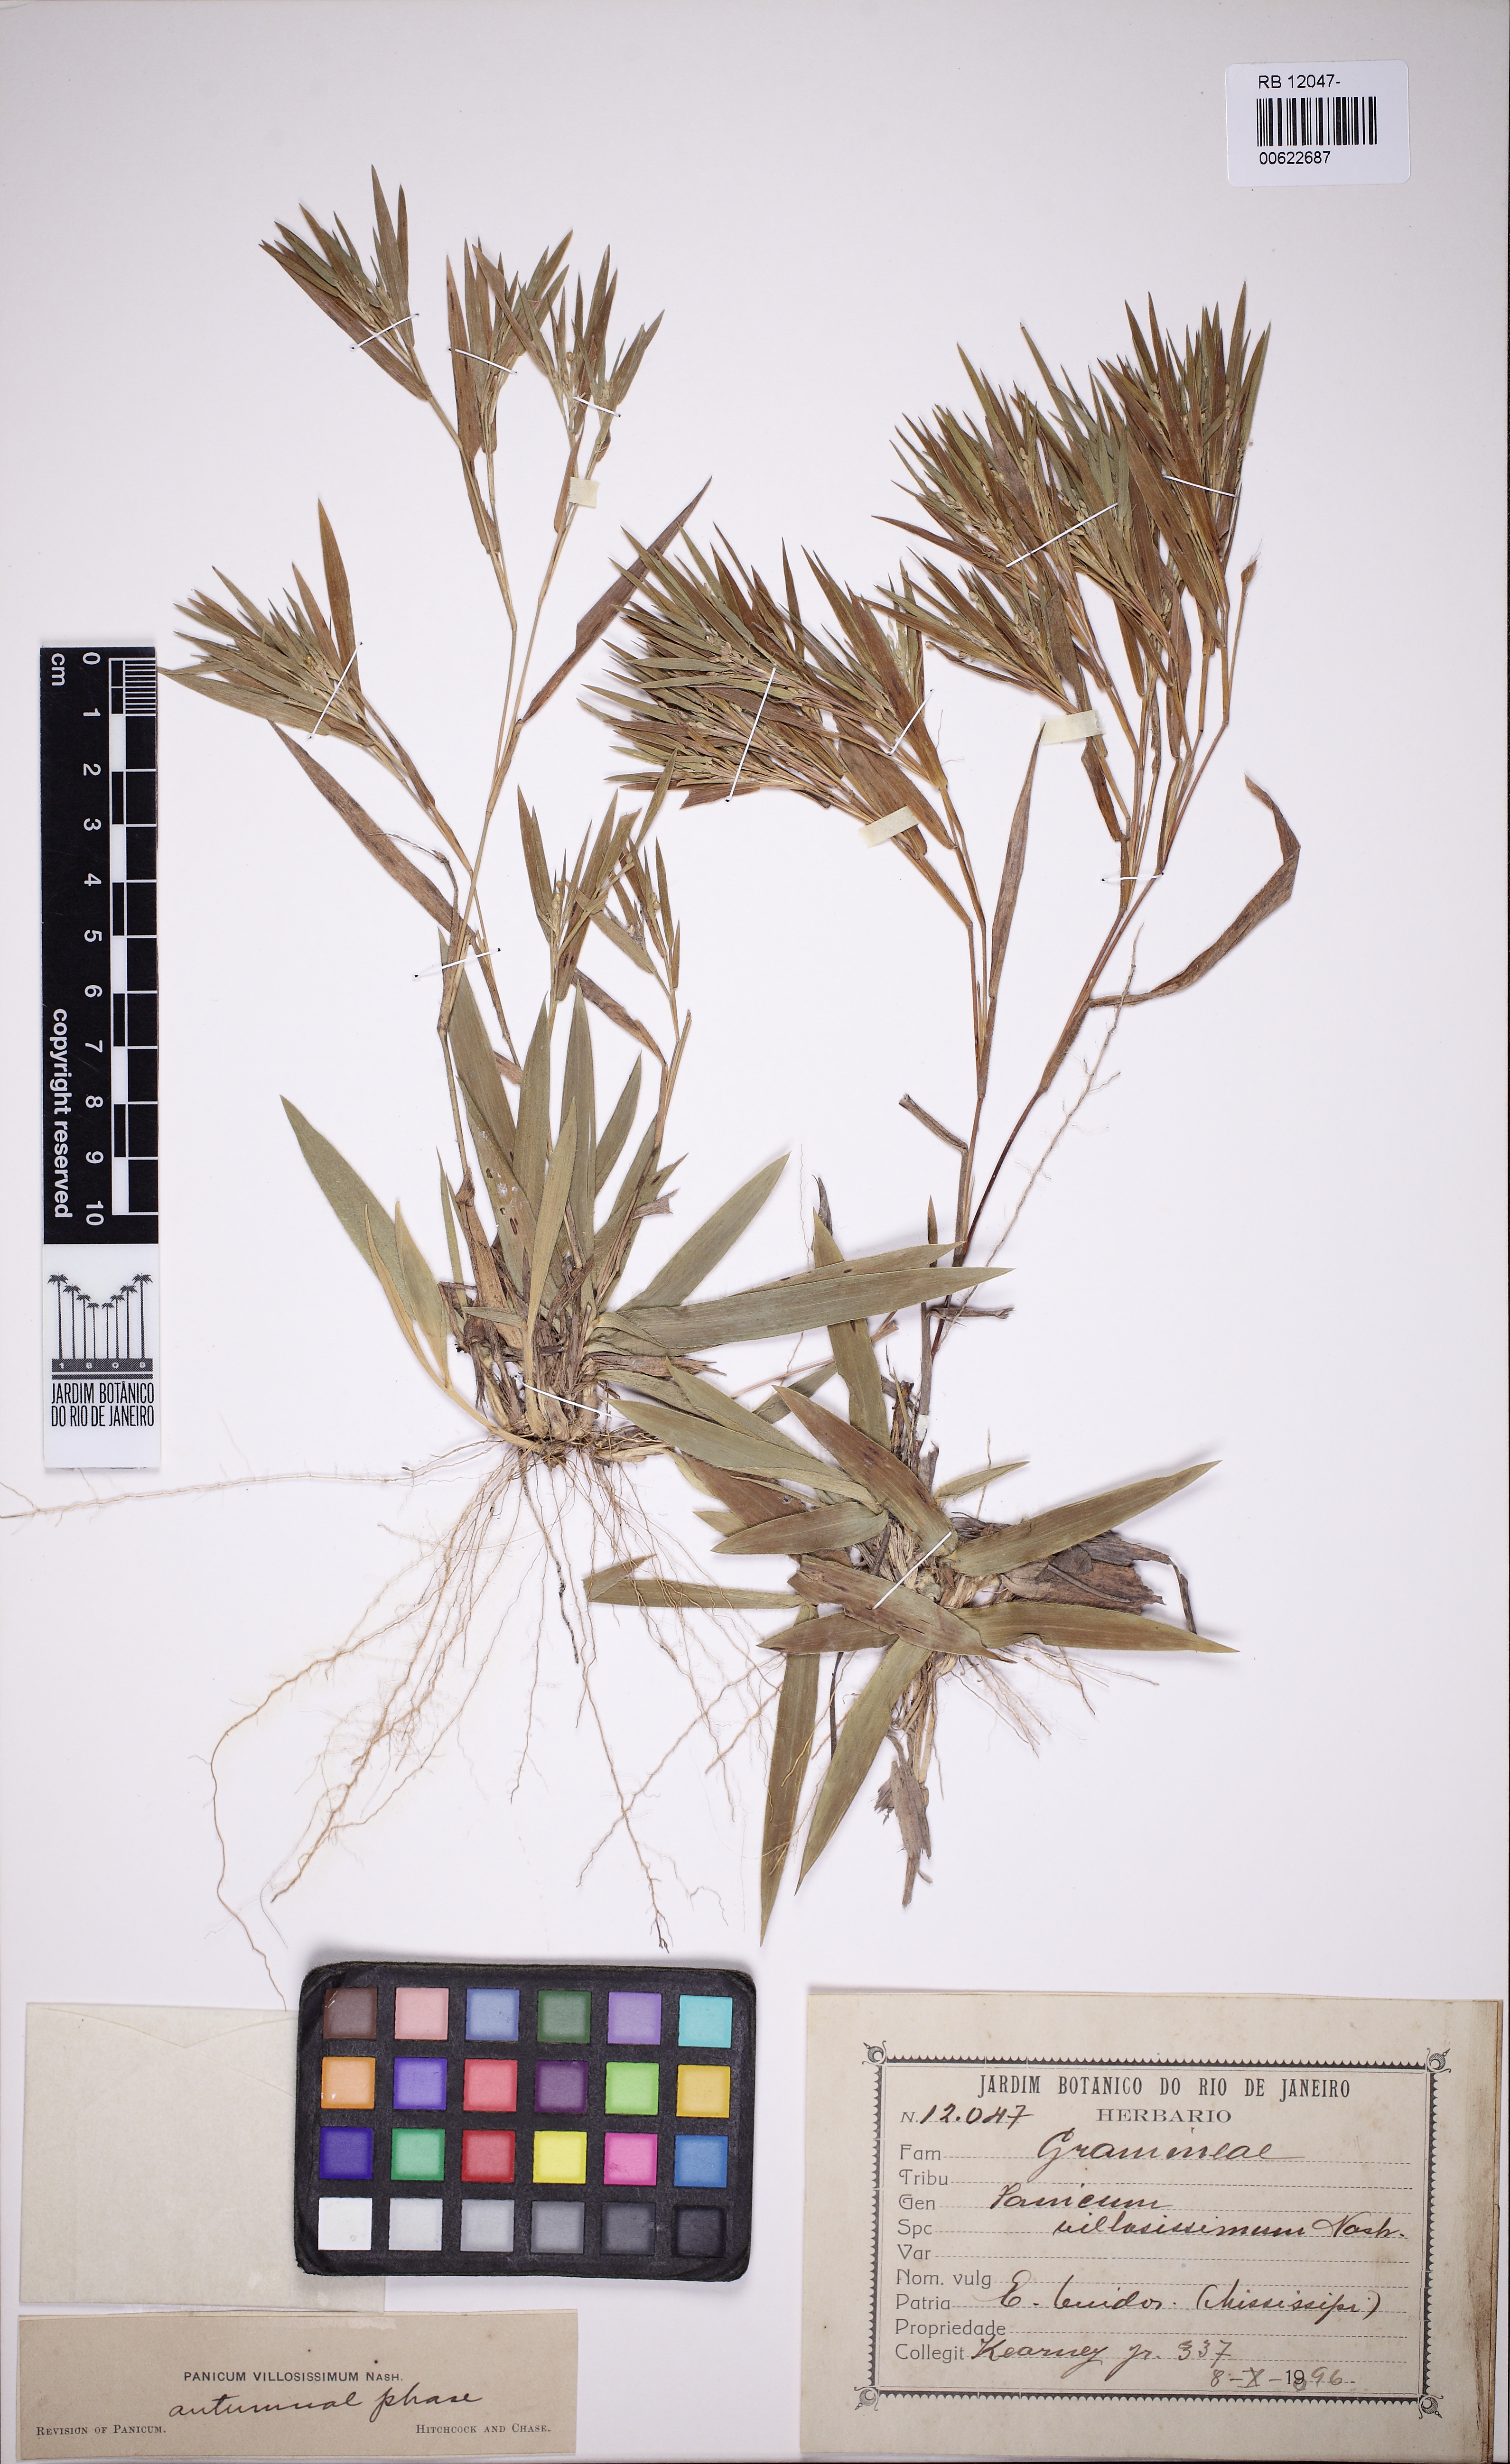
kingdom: Plantae
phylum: Tracheophyta
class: Liliopsida
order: Poales
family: Poaceae
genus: Dichanthelium
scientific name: Dichanthelium villosissimum
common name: White-haired panicgrass
